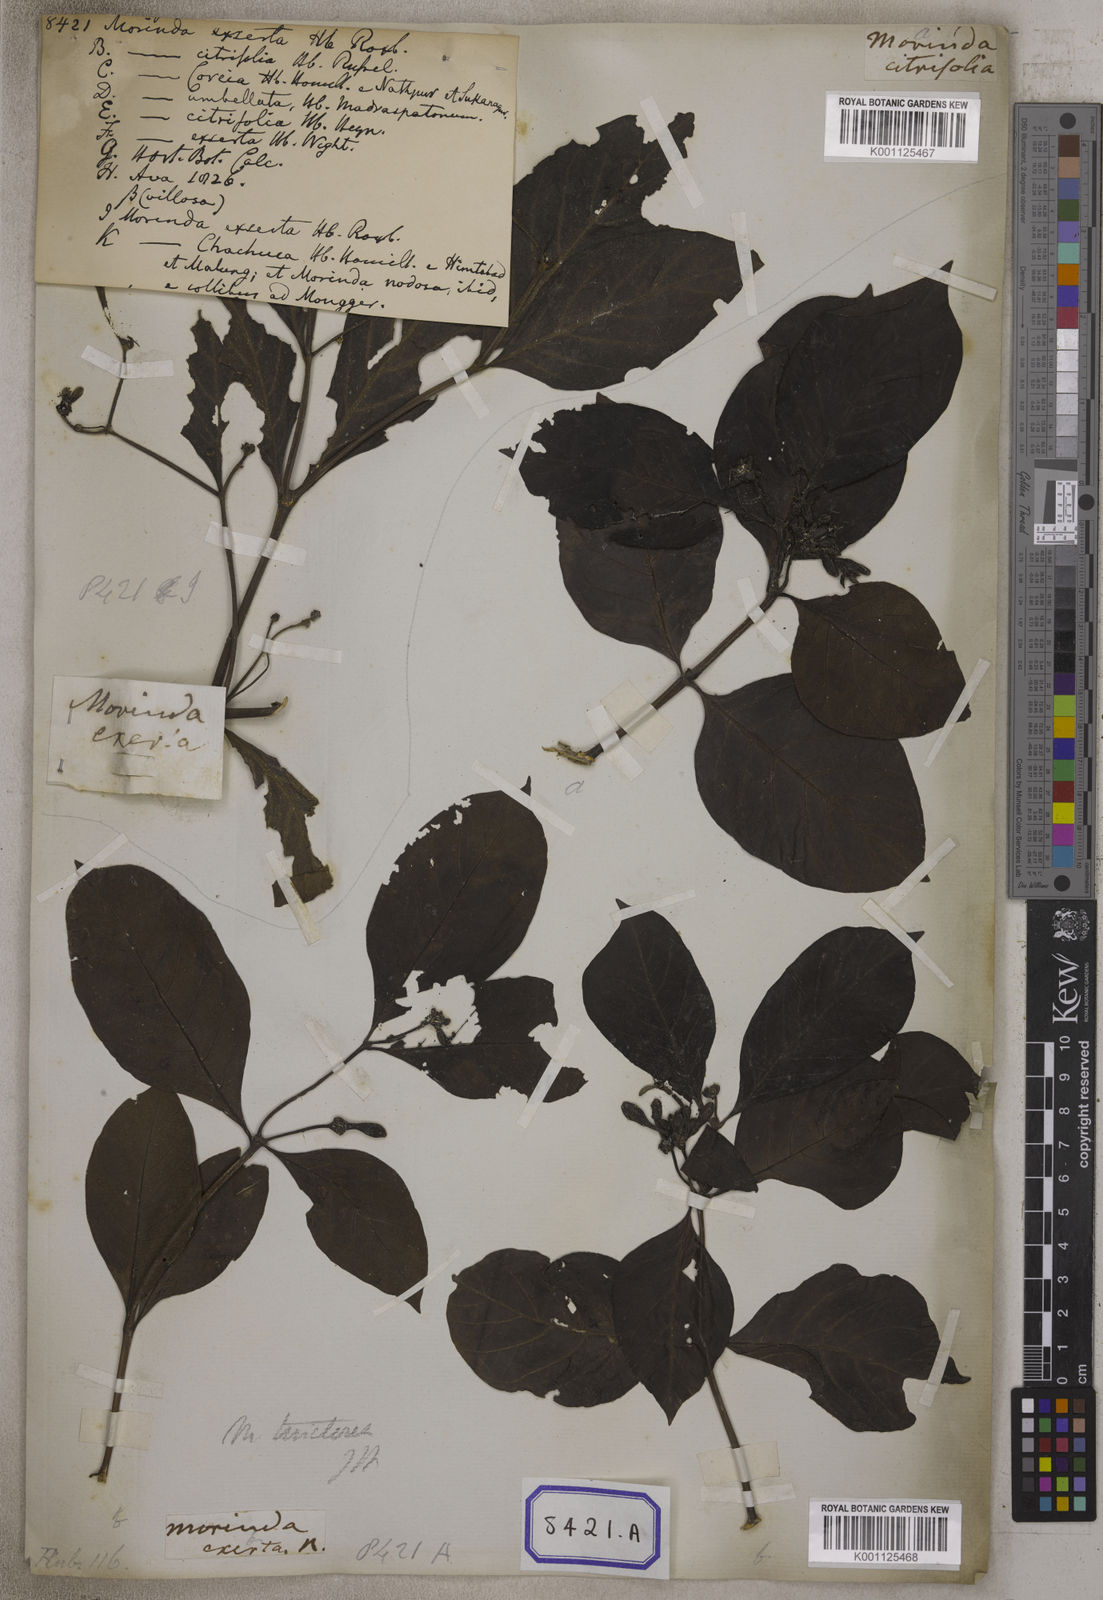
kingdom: Plantae
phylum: Tracheophyta
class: Magnoliopsida
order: Gentianales
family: Rubiaceae
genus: Morinda
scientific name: Morinda coreia
